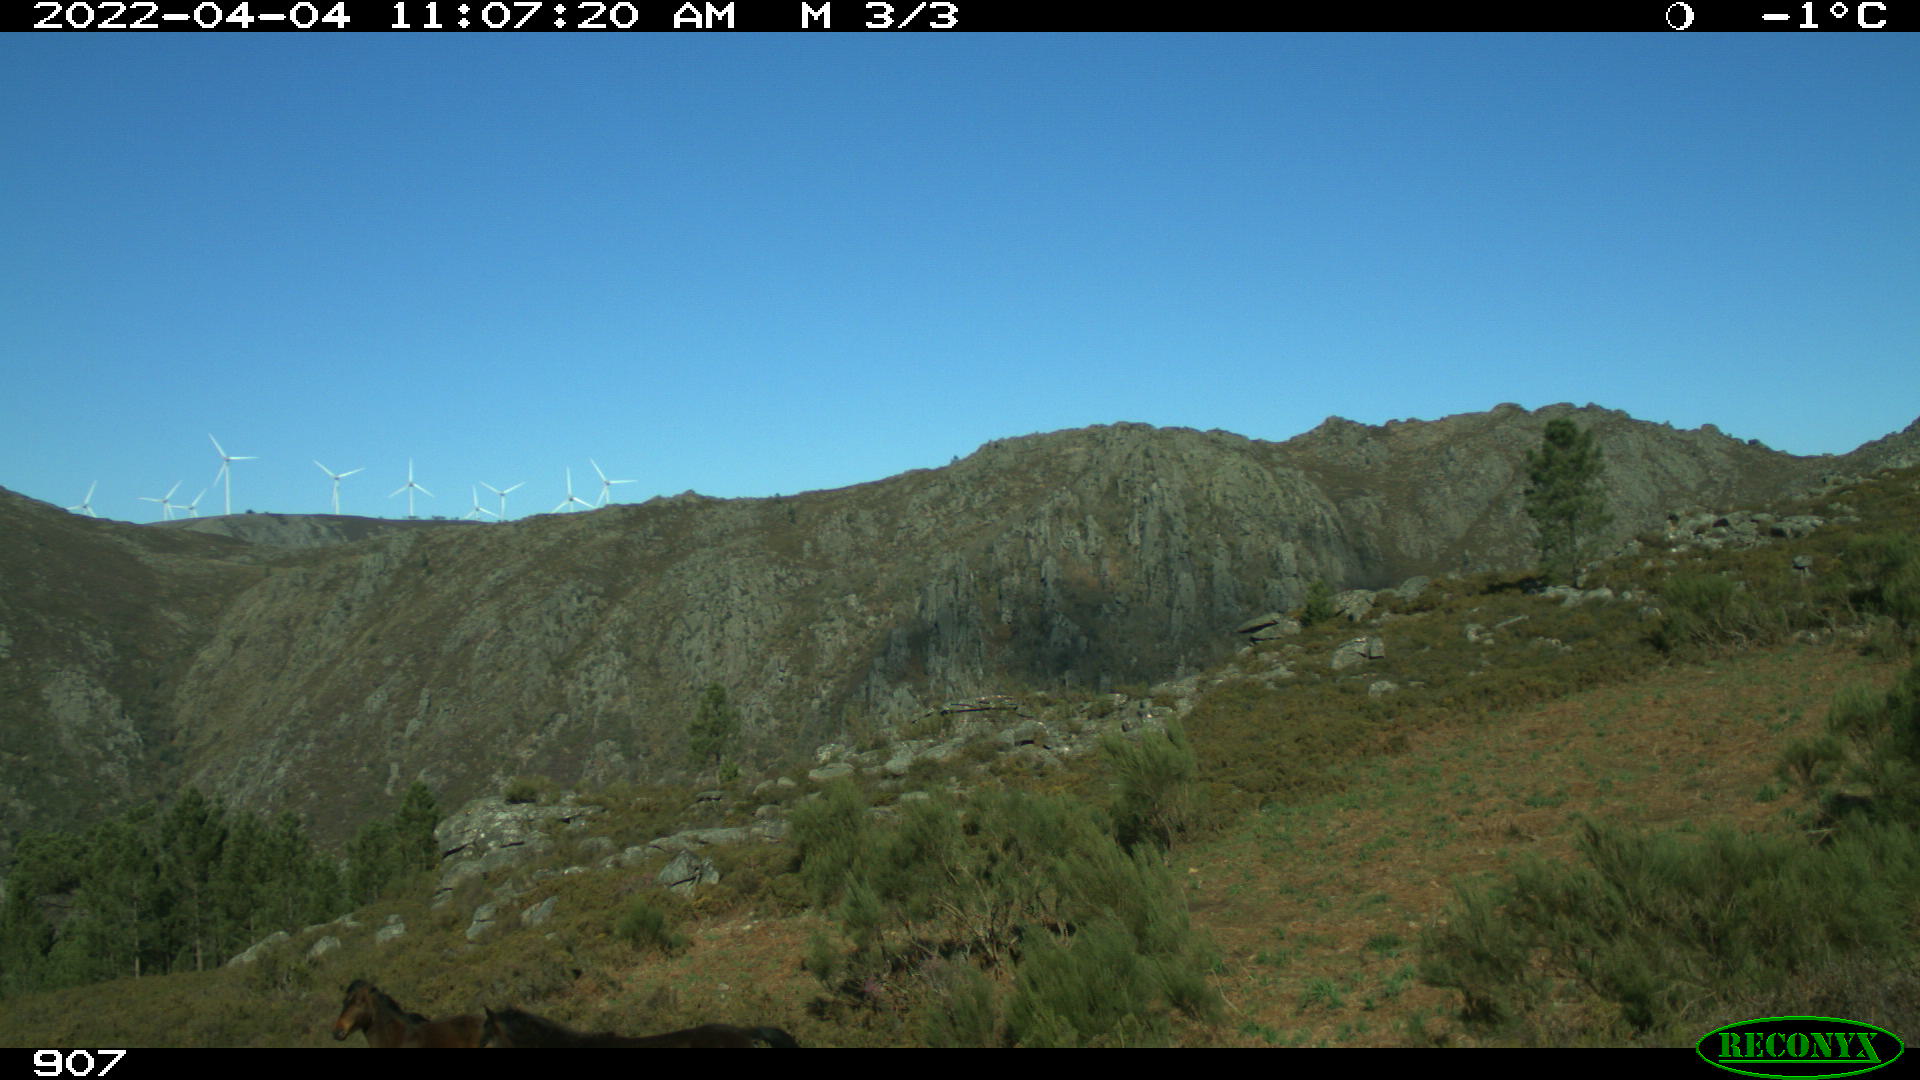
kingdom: Animalia
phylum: Chordata
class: Mammalia
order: Perissodactyla
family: Equidae
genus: Equus
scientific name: Equus caballus
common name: Horse
